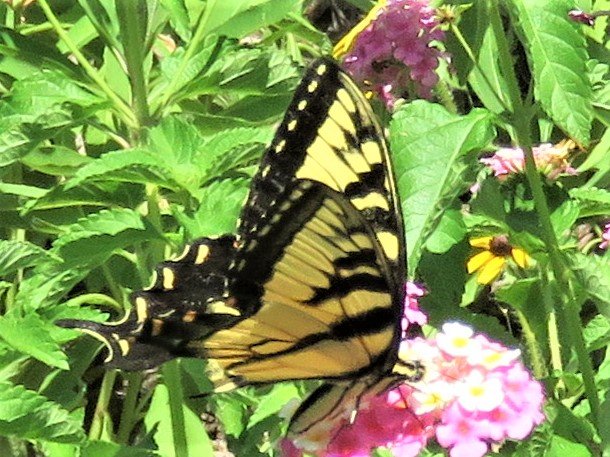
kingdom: Animalia
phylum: Arthropoda
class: Insecta
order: Lepidoptera
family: Papilionidae
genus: Pterourus
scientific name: Pterourus glaucus
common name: Eastern Tiger Swallowtail
